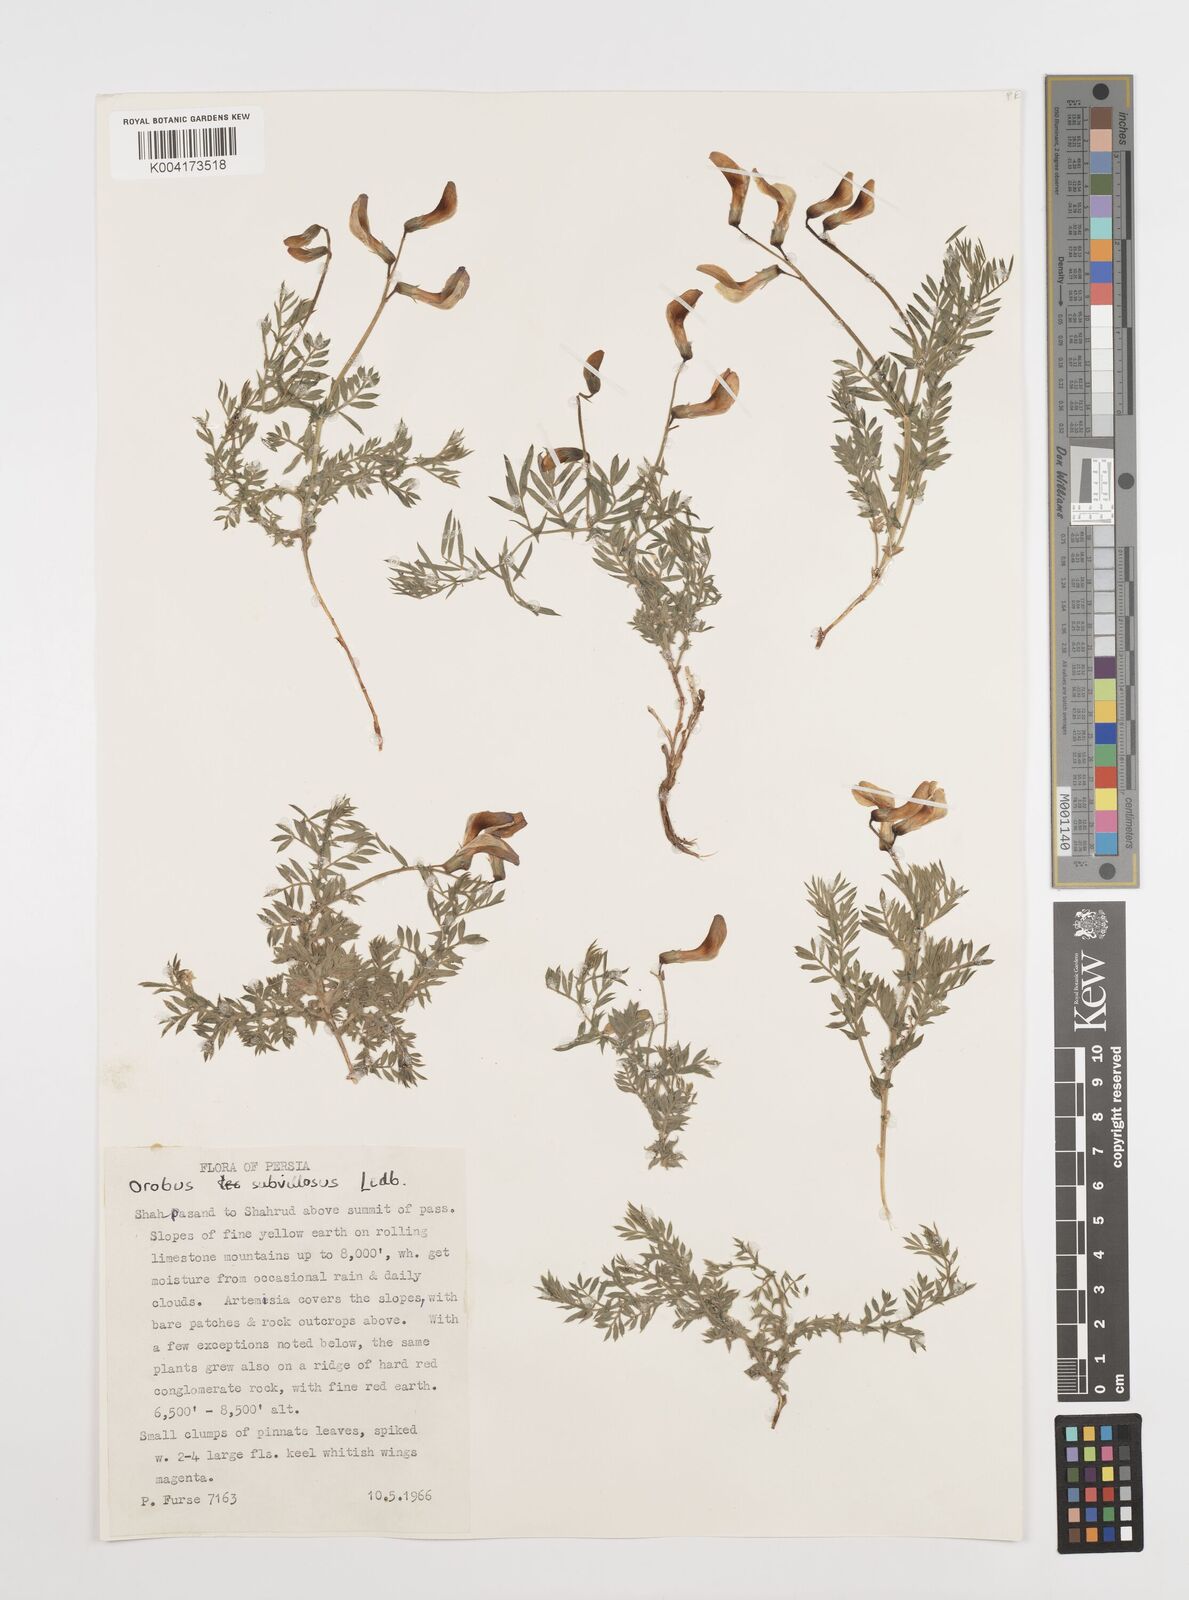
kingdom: Plantae
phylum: Tracheophyta
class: Magnoliopsida
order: Fabales
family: Fabaceae
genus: Vicia
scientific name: Vicia subvillosa
